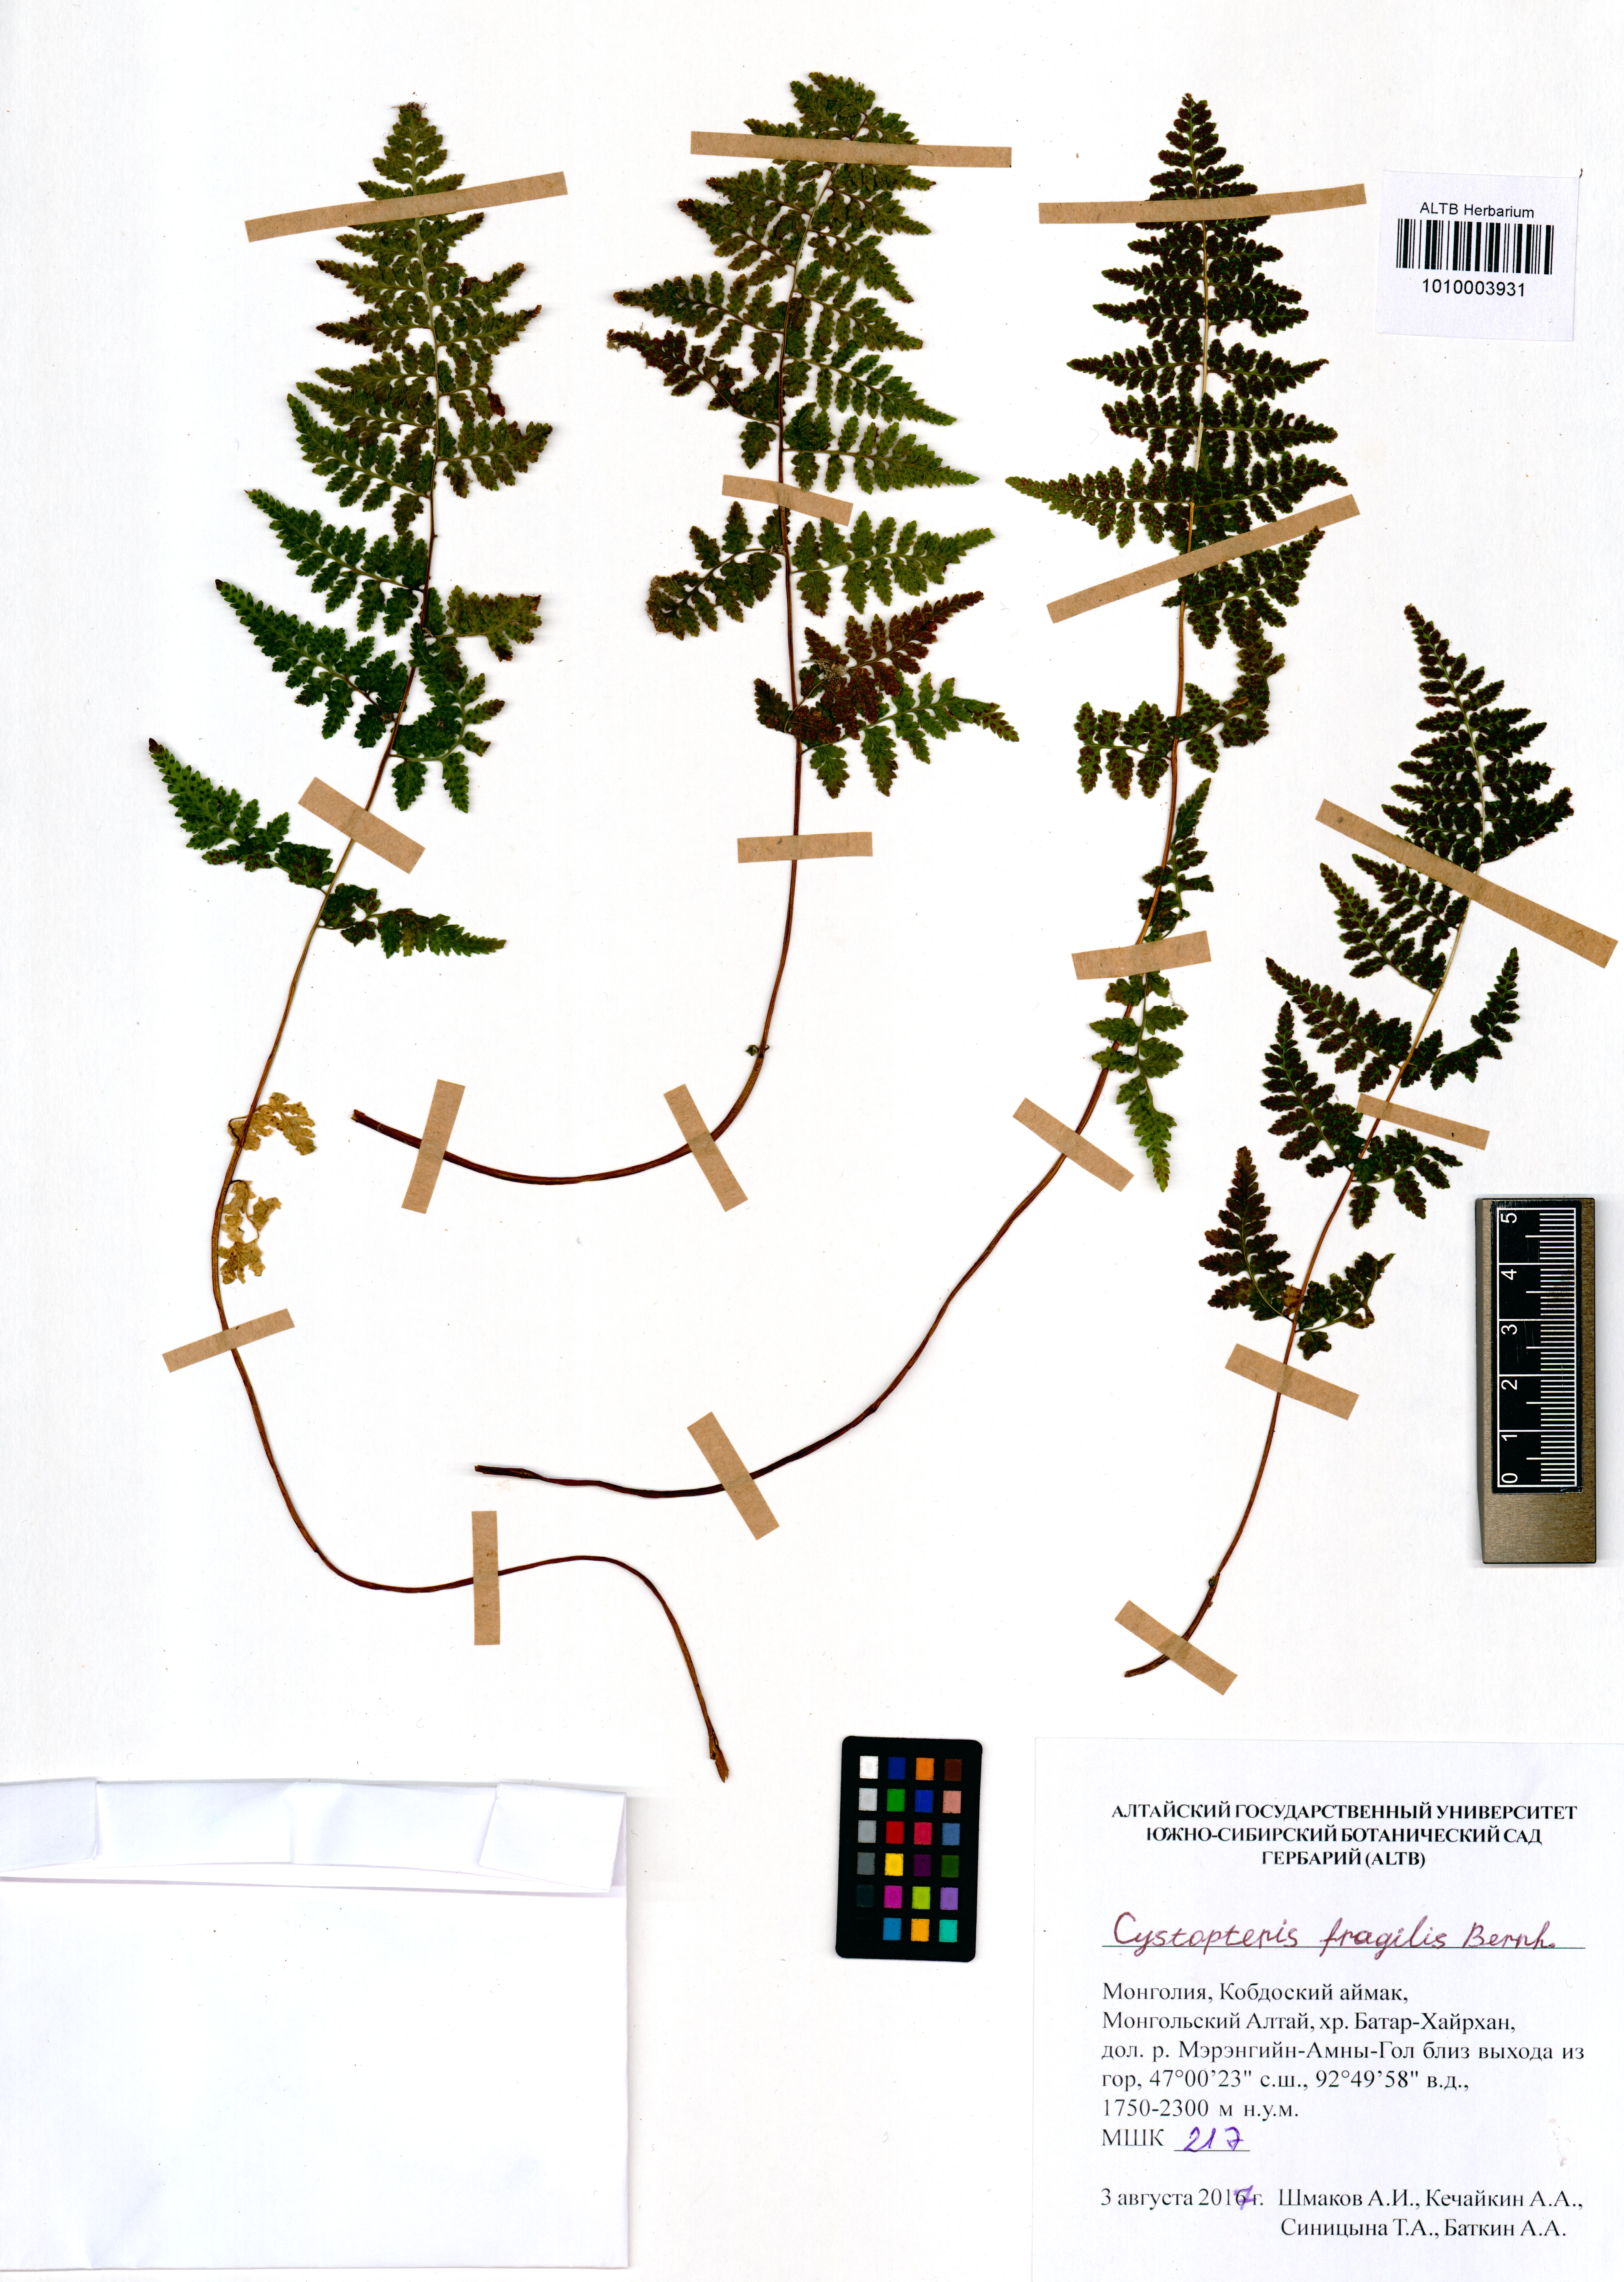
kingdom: Plantae
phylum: Tracheophyta
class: Polypodiopsida
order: Polypodiales
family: Cystopteridaceae
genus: Cystopteris
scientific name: Cystopteris fragilis
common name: Brittle bladder fern
